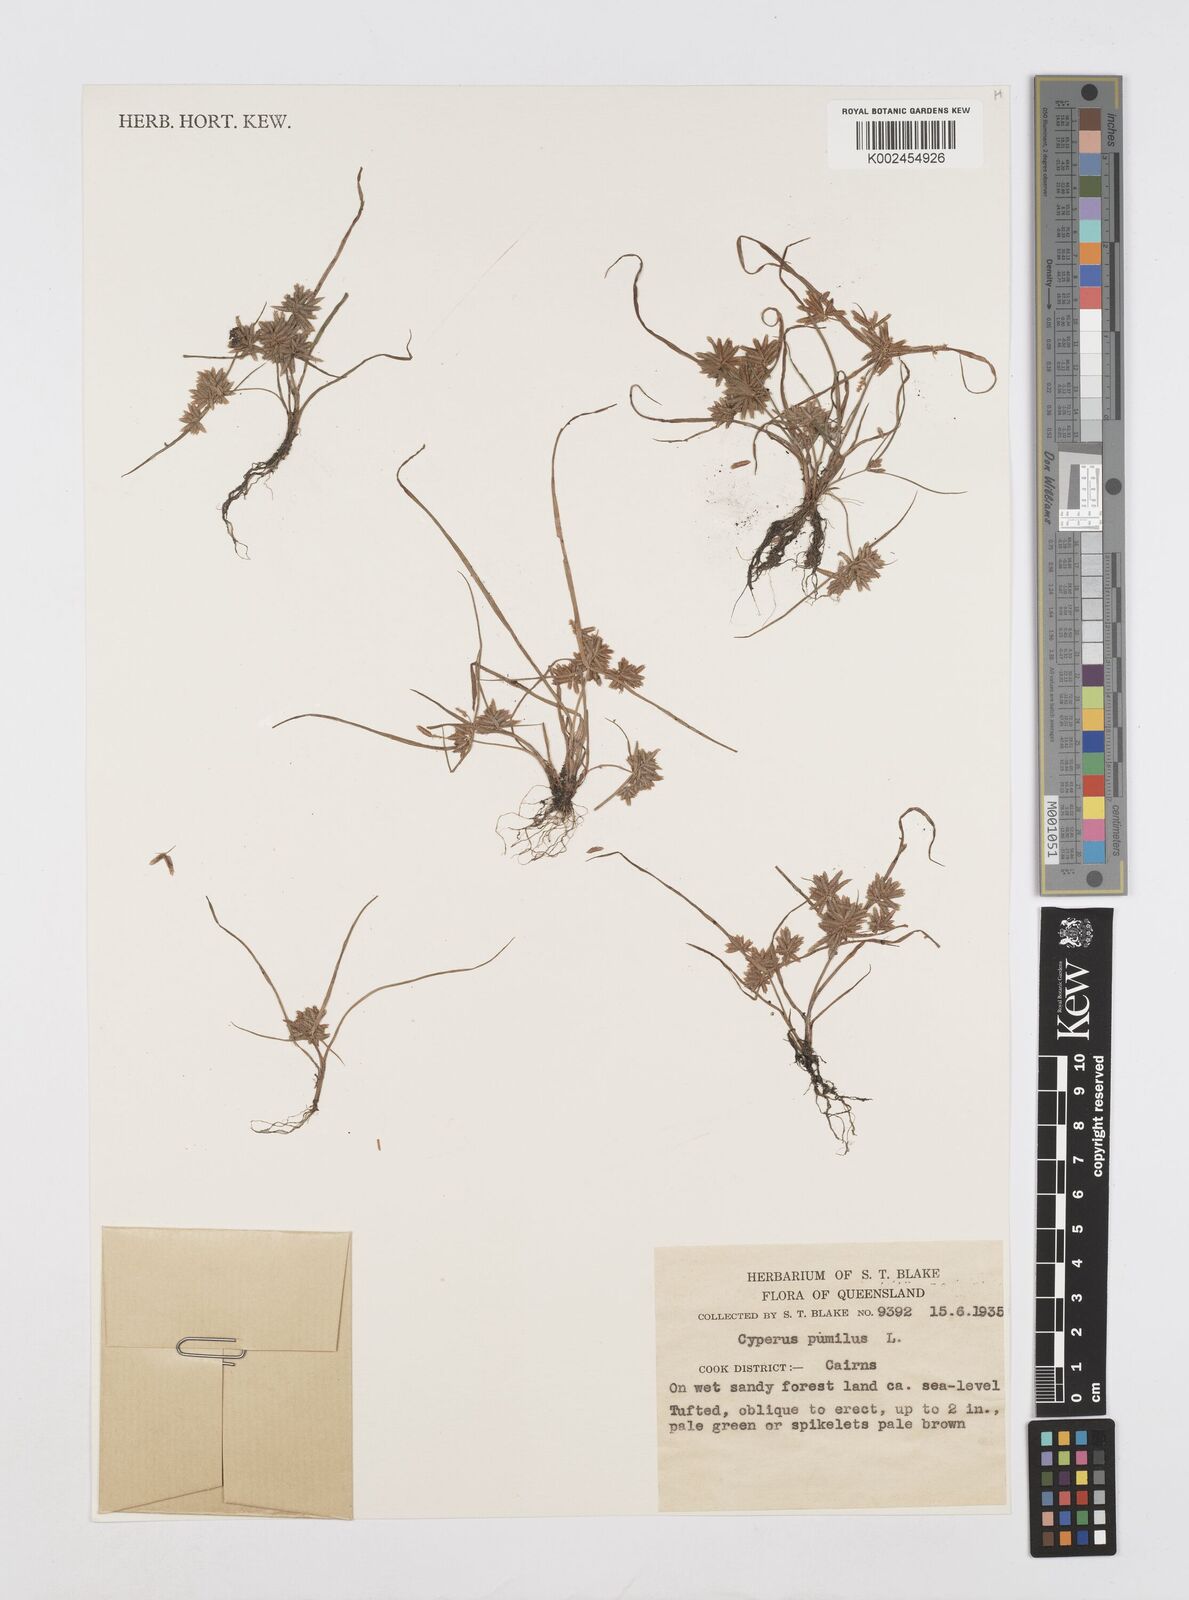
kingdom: Plantae
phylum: Tracheophyta
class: Liliopsida
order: Poales
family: Cyperaceae
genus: Cyperus
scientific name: Cyperus pumilus
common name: Low flatsedge
